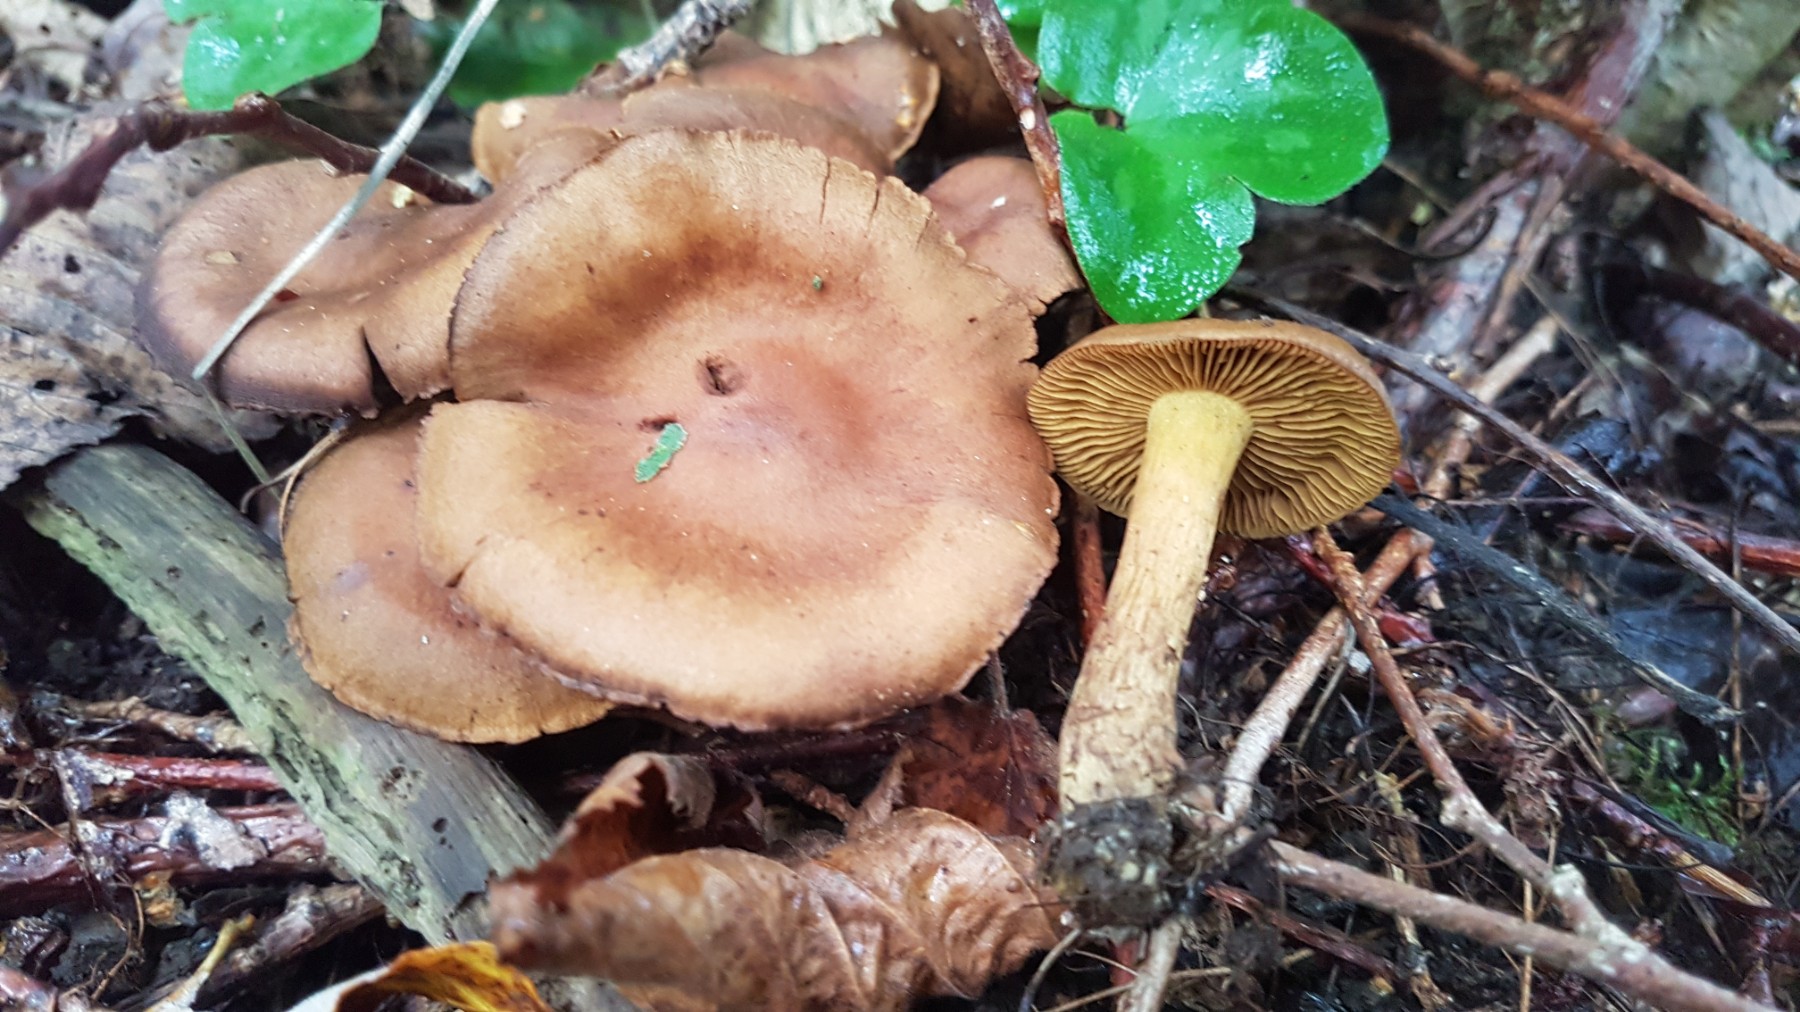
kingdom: Fungi
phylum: Basidiomycota
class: Agaricomycetes
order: Agaricales
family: Cortinariaceae
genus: Cortinarius
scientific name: Cortinarius venetus
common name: olivengrøn slørhat
